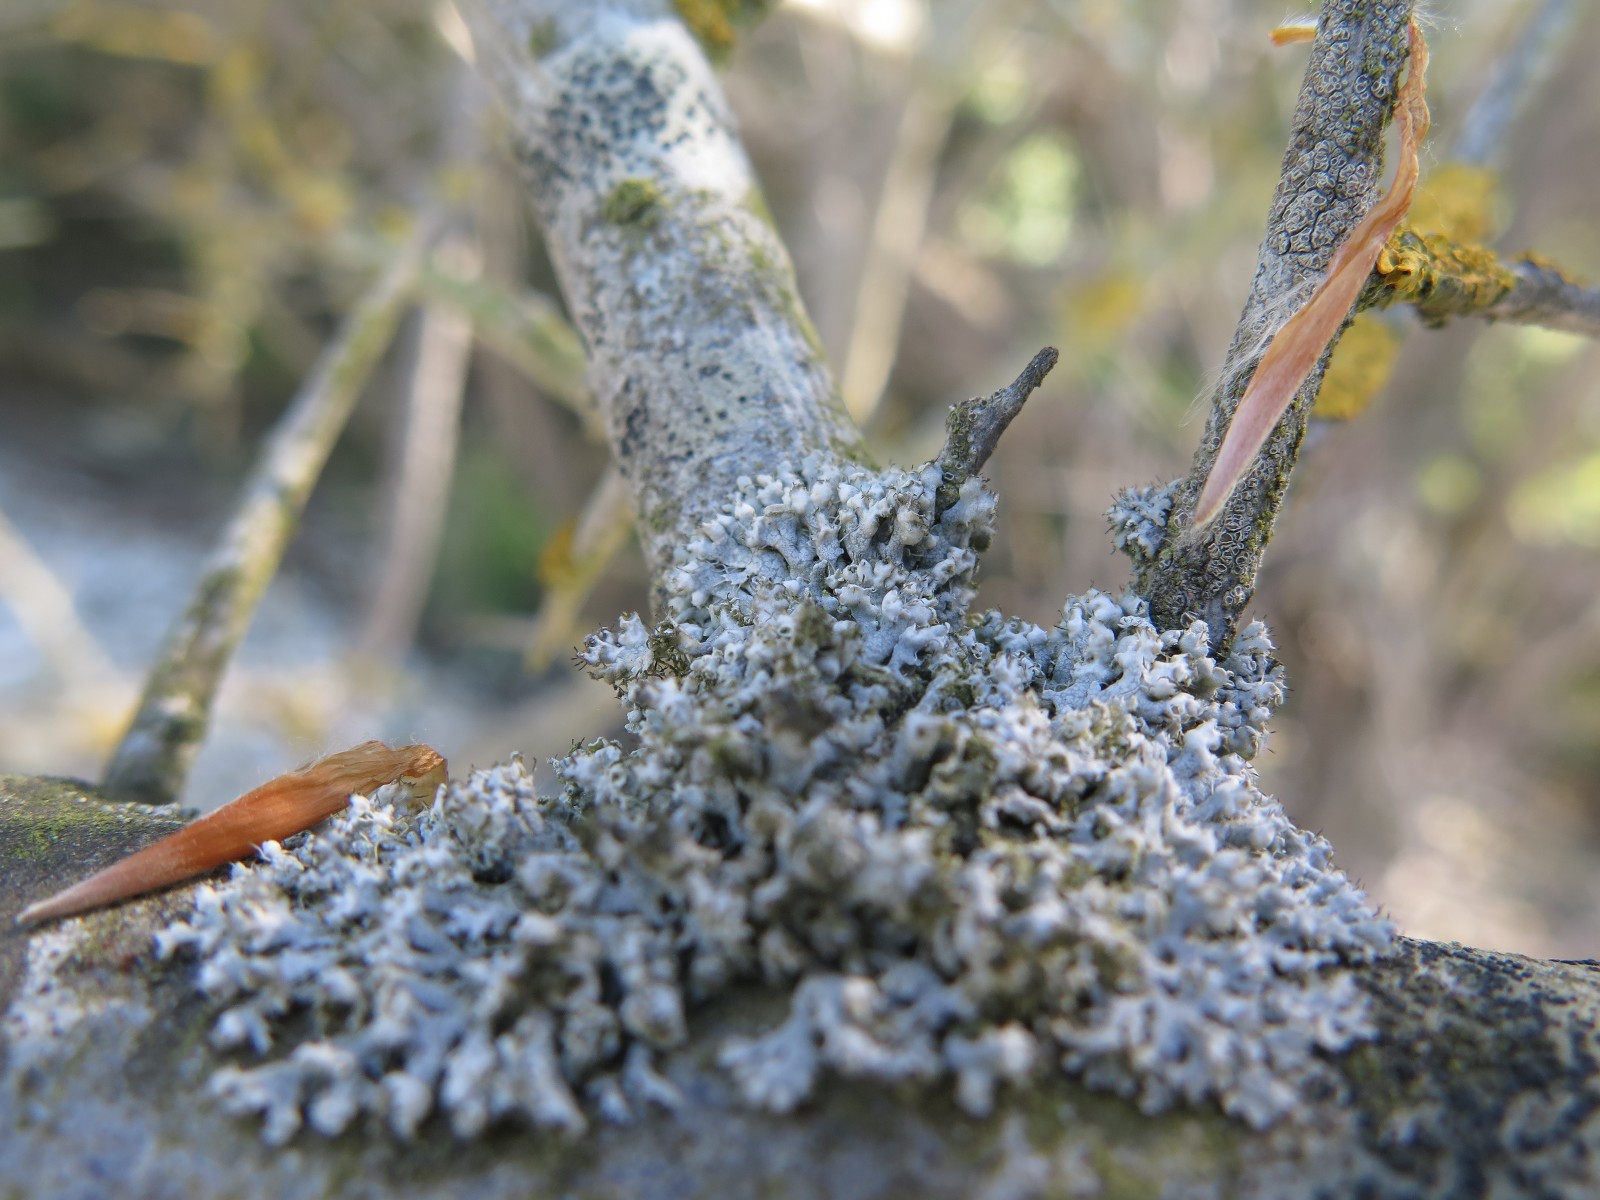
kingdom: Fungi
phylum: Ascomycota
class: Lecanoromycetes
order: Caliciales
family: Physciaceae
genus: Physcia
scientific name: Physcia adscendens
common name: hætte-rosetlav
